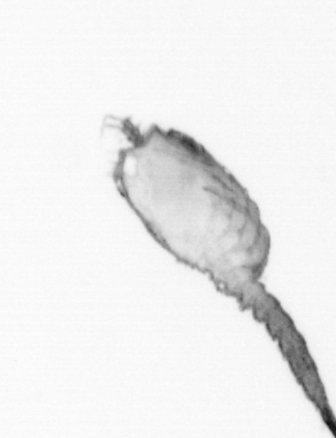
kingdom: Animalia
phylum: Arthropoda
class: Copepoda
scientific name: Copepoda
